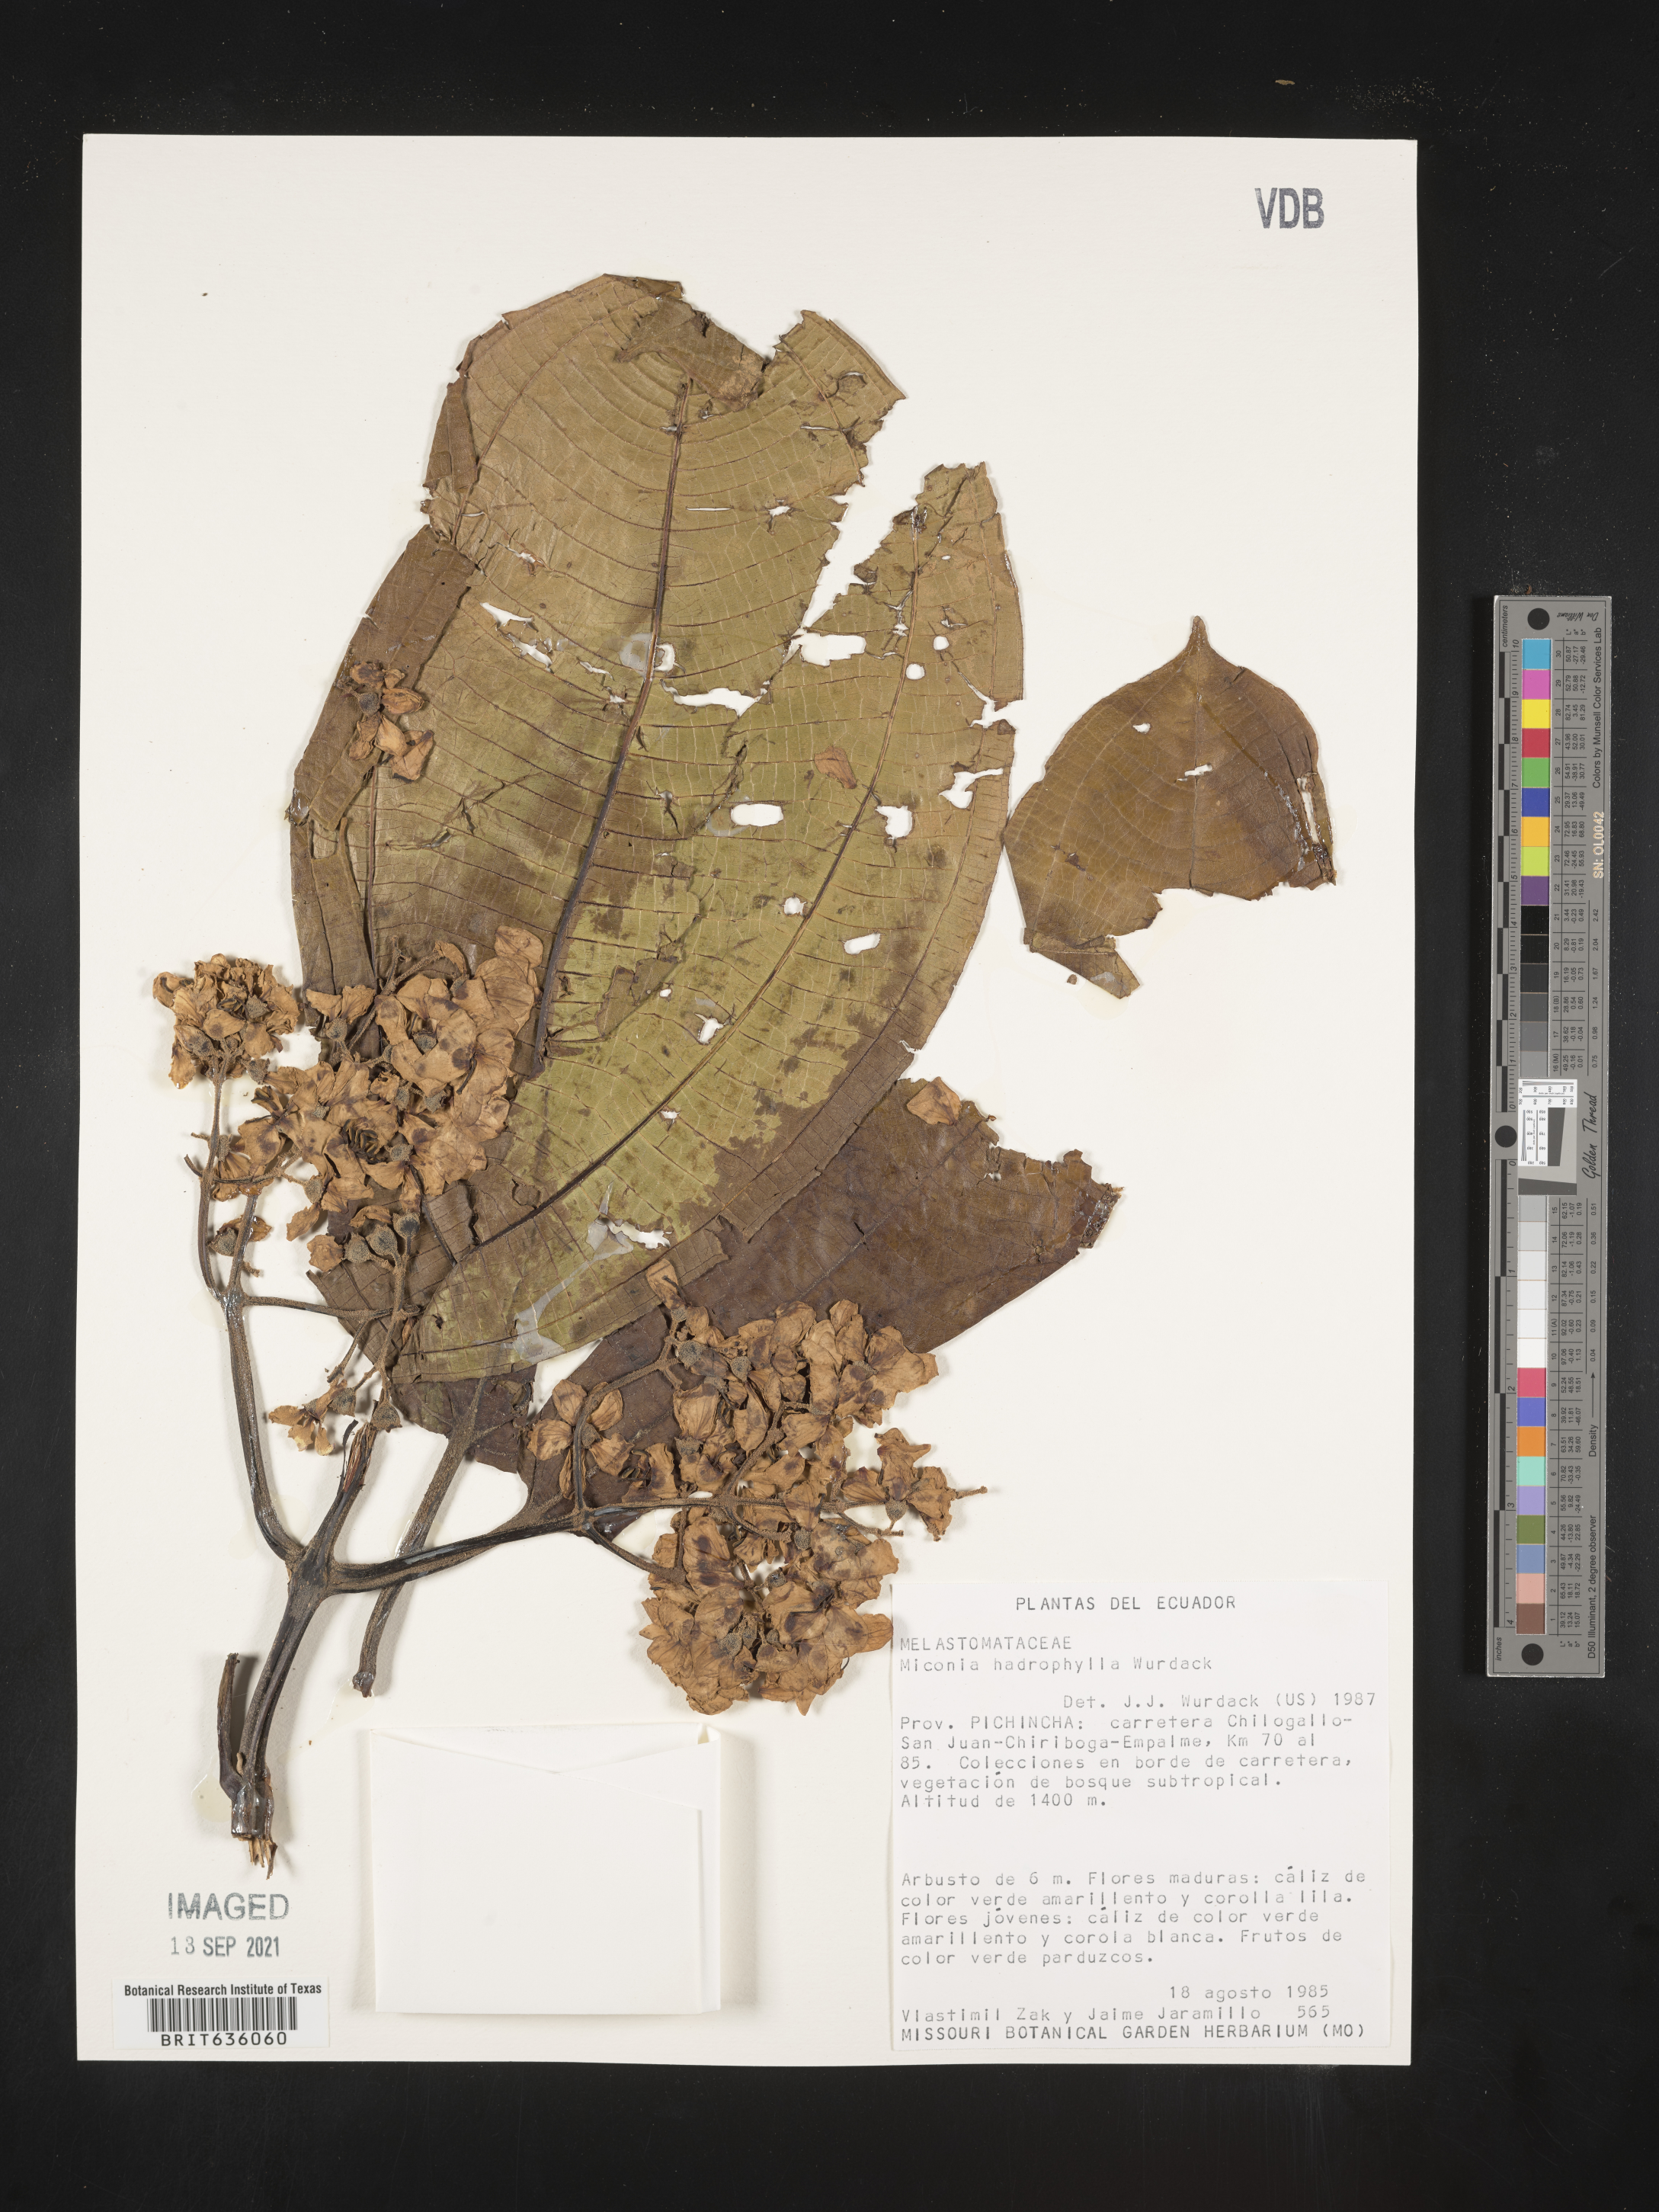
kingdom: Plantae
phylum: Tracheophyta
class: Magnoliopsida
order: Myrtales
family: Melastomataceae
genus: Miconia
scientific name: Miconia
